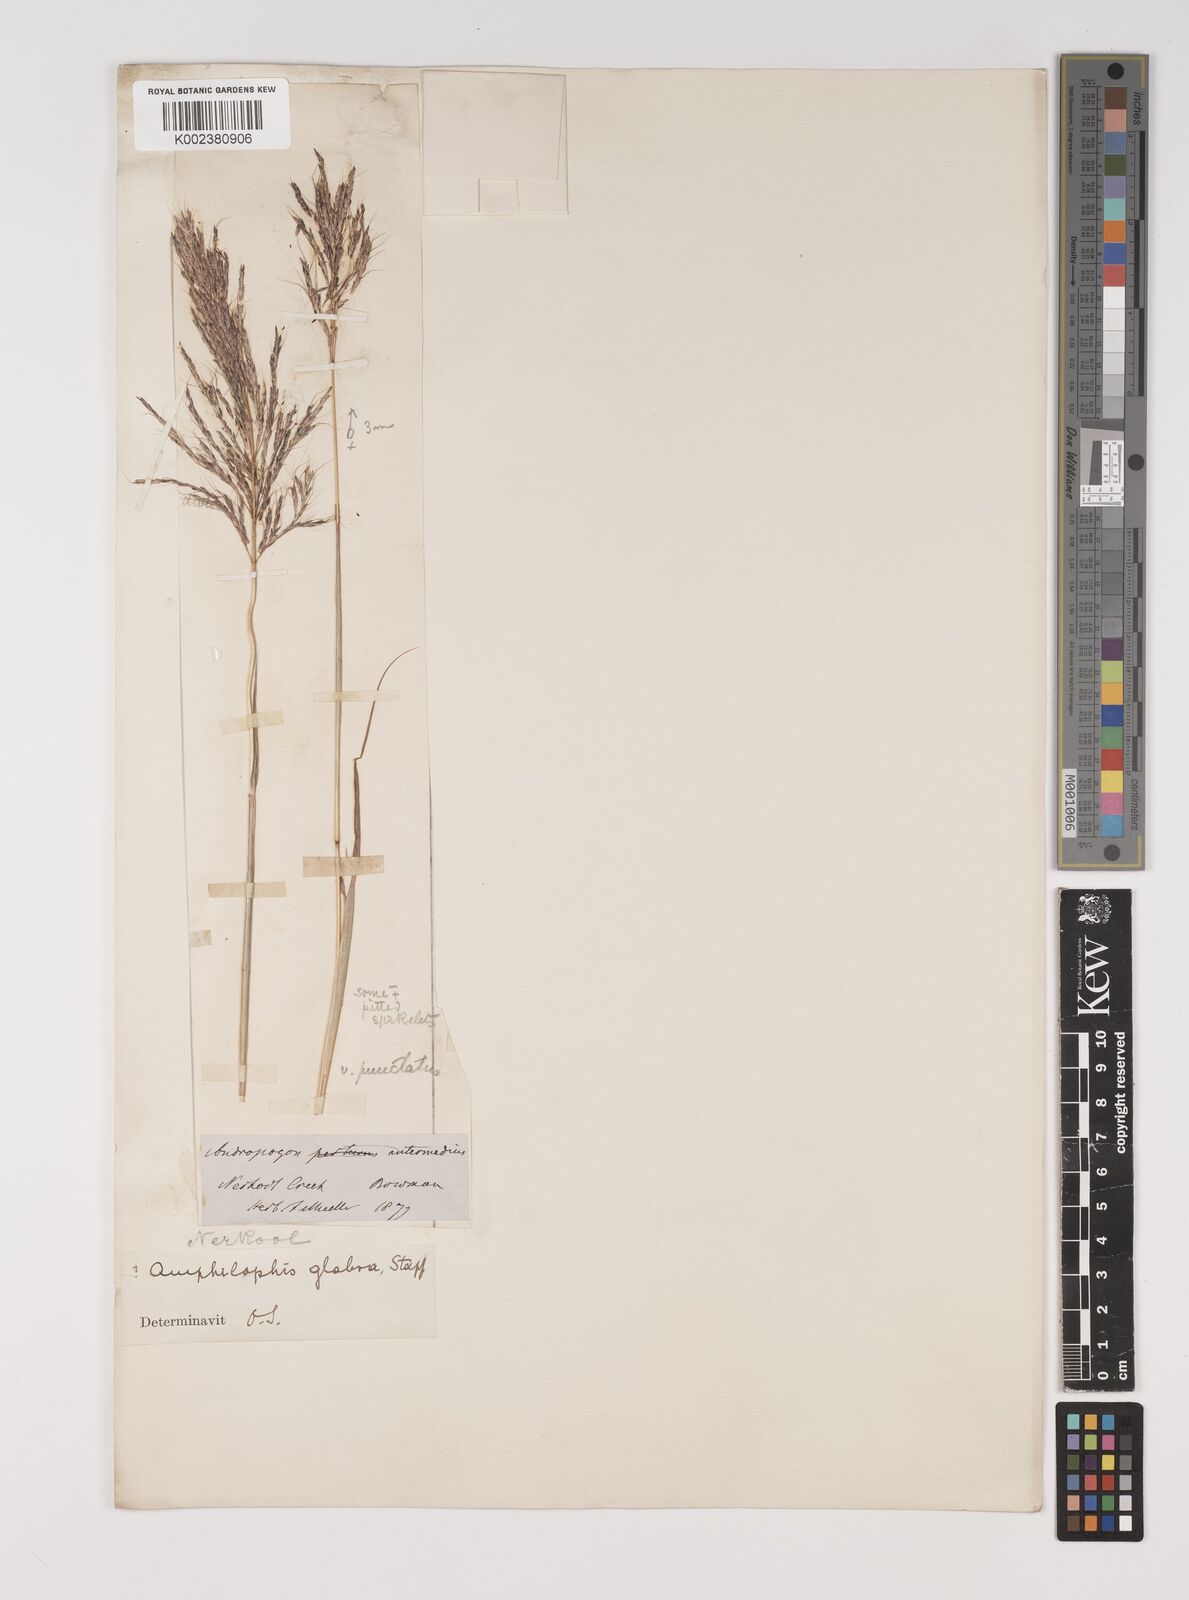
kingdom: Plantae
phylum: Tracheophyta
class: Liliopsida
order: Poales
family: Poaceae
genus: Bothriochloa
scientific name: Bothriochloa bladhii
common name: Caucasian bluestem
